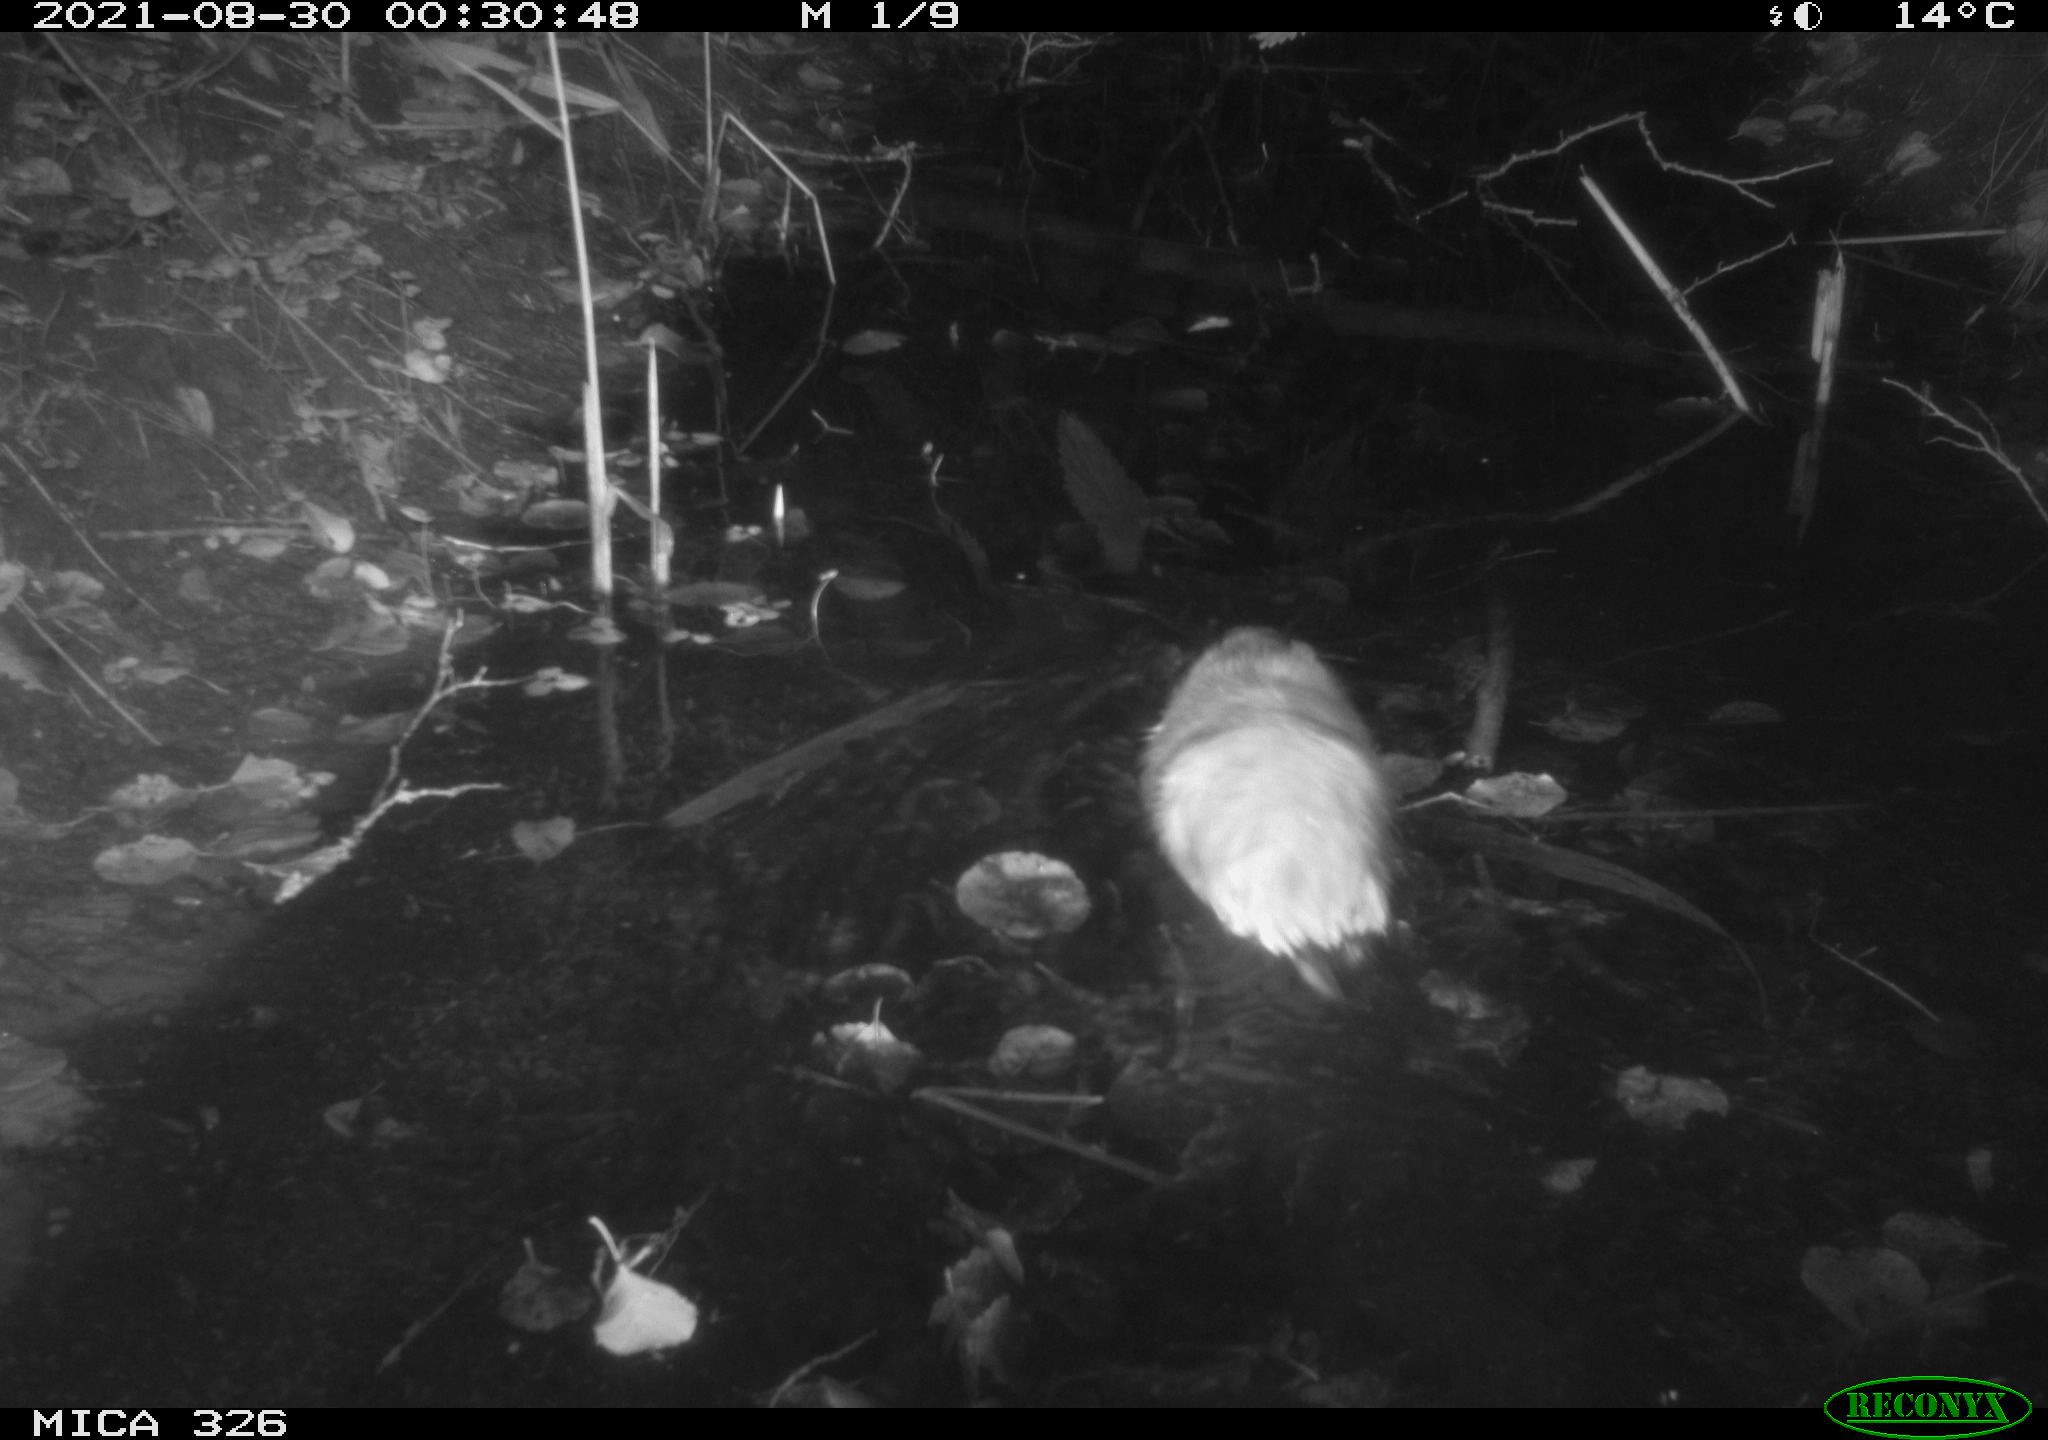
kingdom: Animalia
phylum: Chordata
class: Mammalia
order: Rodentia
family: Cricetidae
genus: Ondatra
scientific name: Ondatra zibethicus
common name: Muskrat
